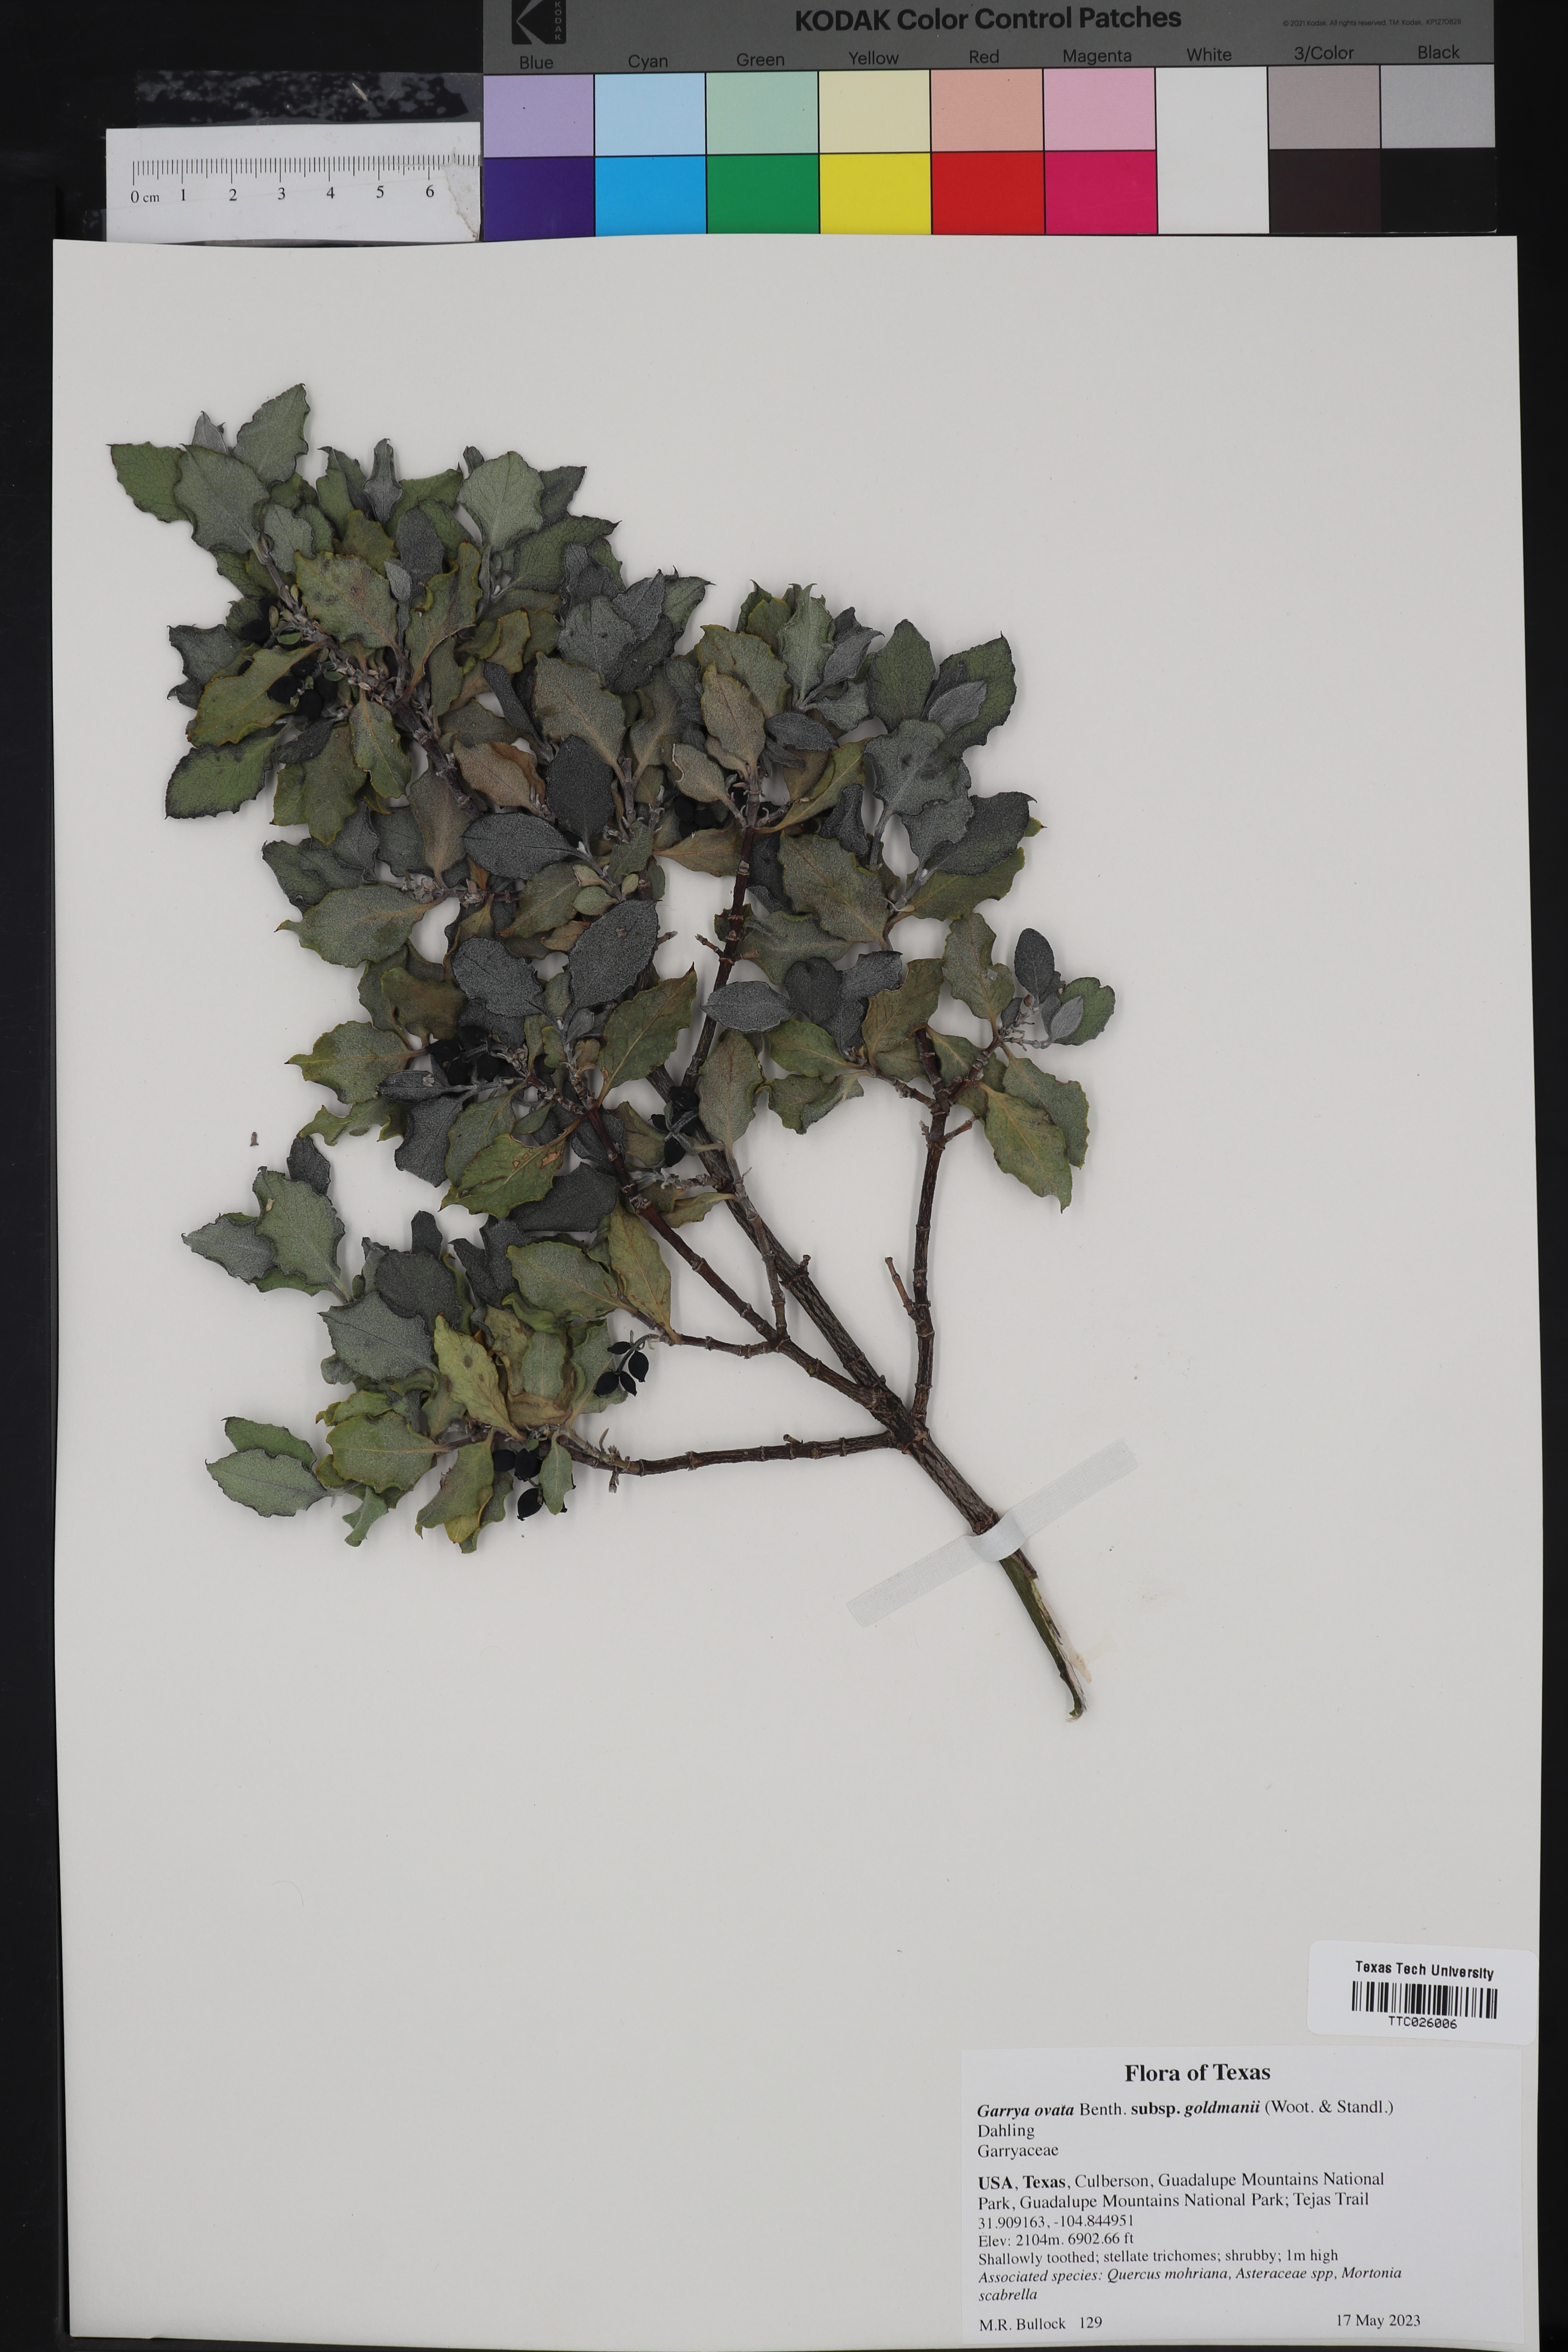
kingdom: Plantae
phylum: Tracheophyta
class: Magnoliopsida
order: Garryales
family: Garryaceae
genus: Garrya
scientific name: Garrya goldmanii
